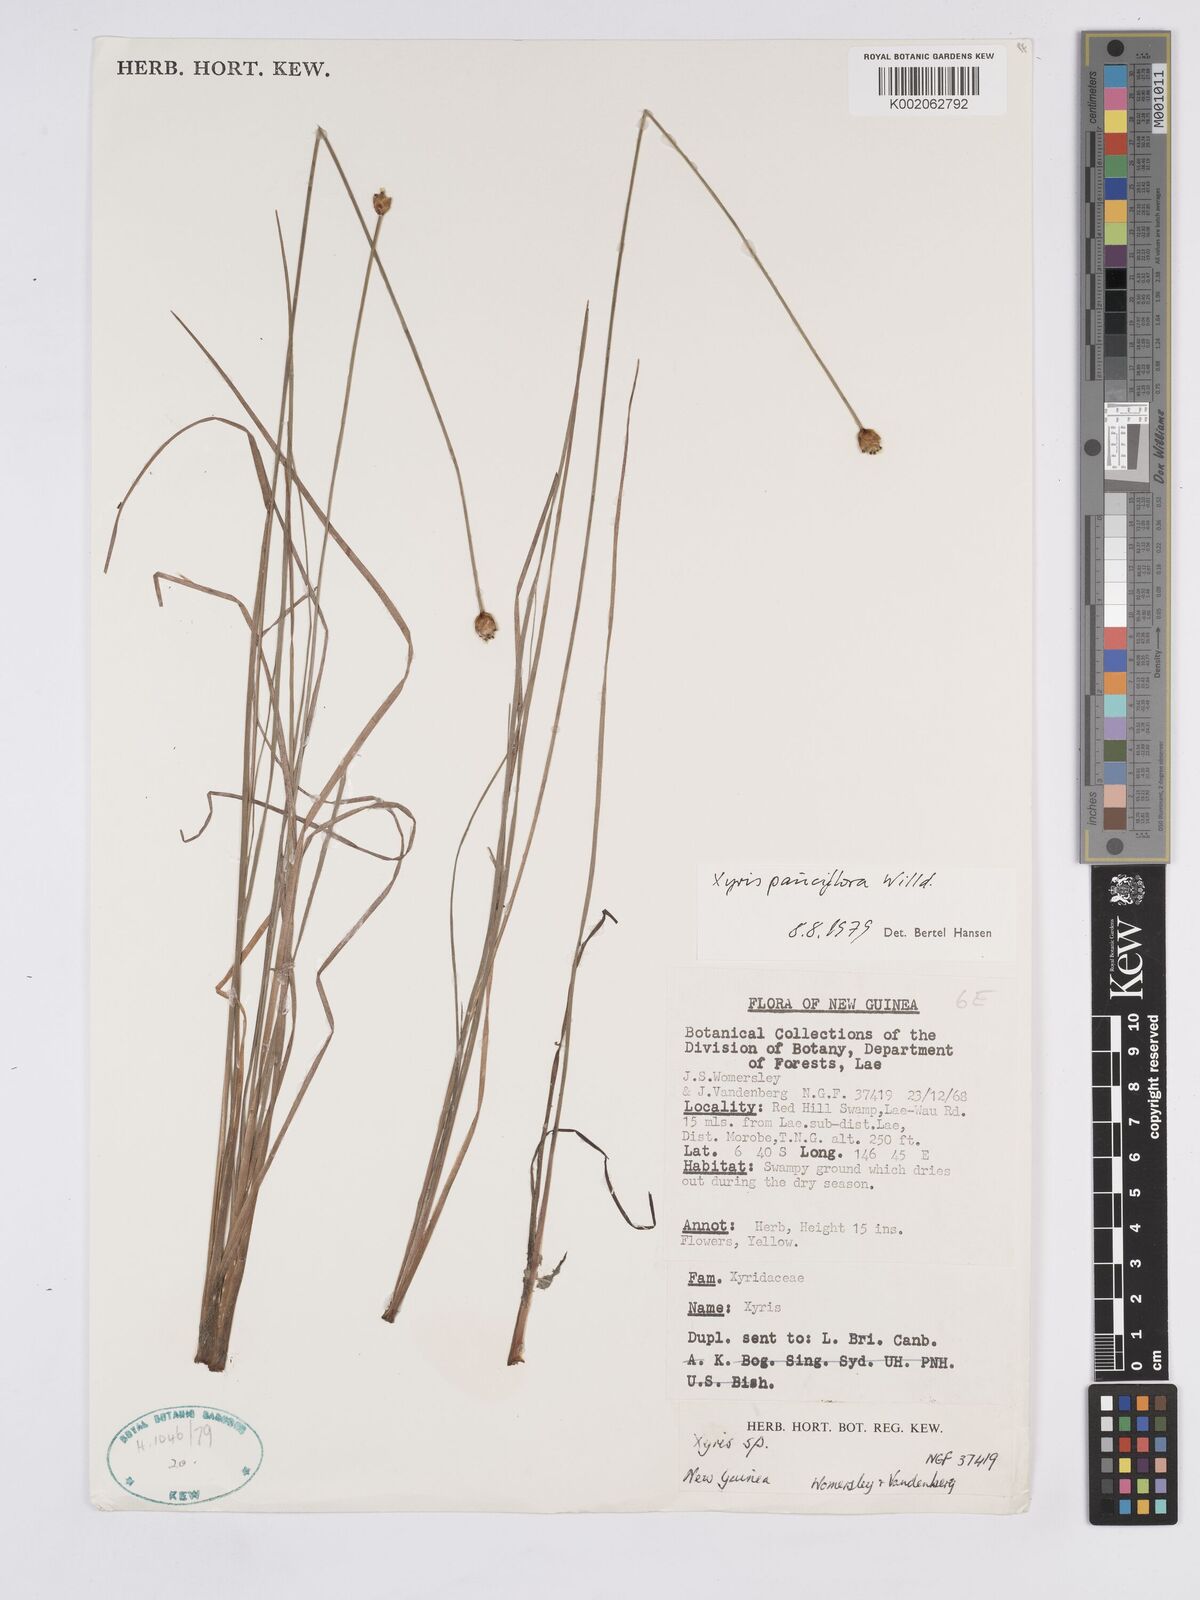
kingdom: Plantae
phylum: Tracheophyta
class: Liliopsida
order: Poales
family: Xyridaceae
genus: Xyris
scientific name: Xyris pauciflora
